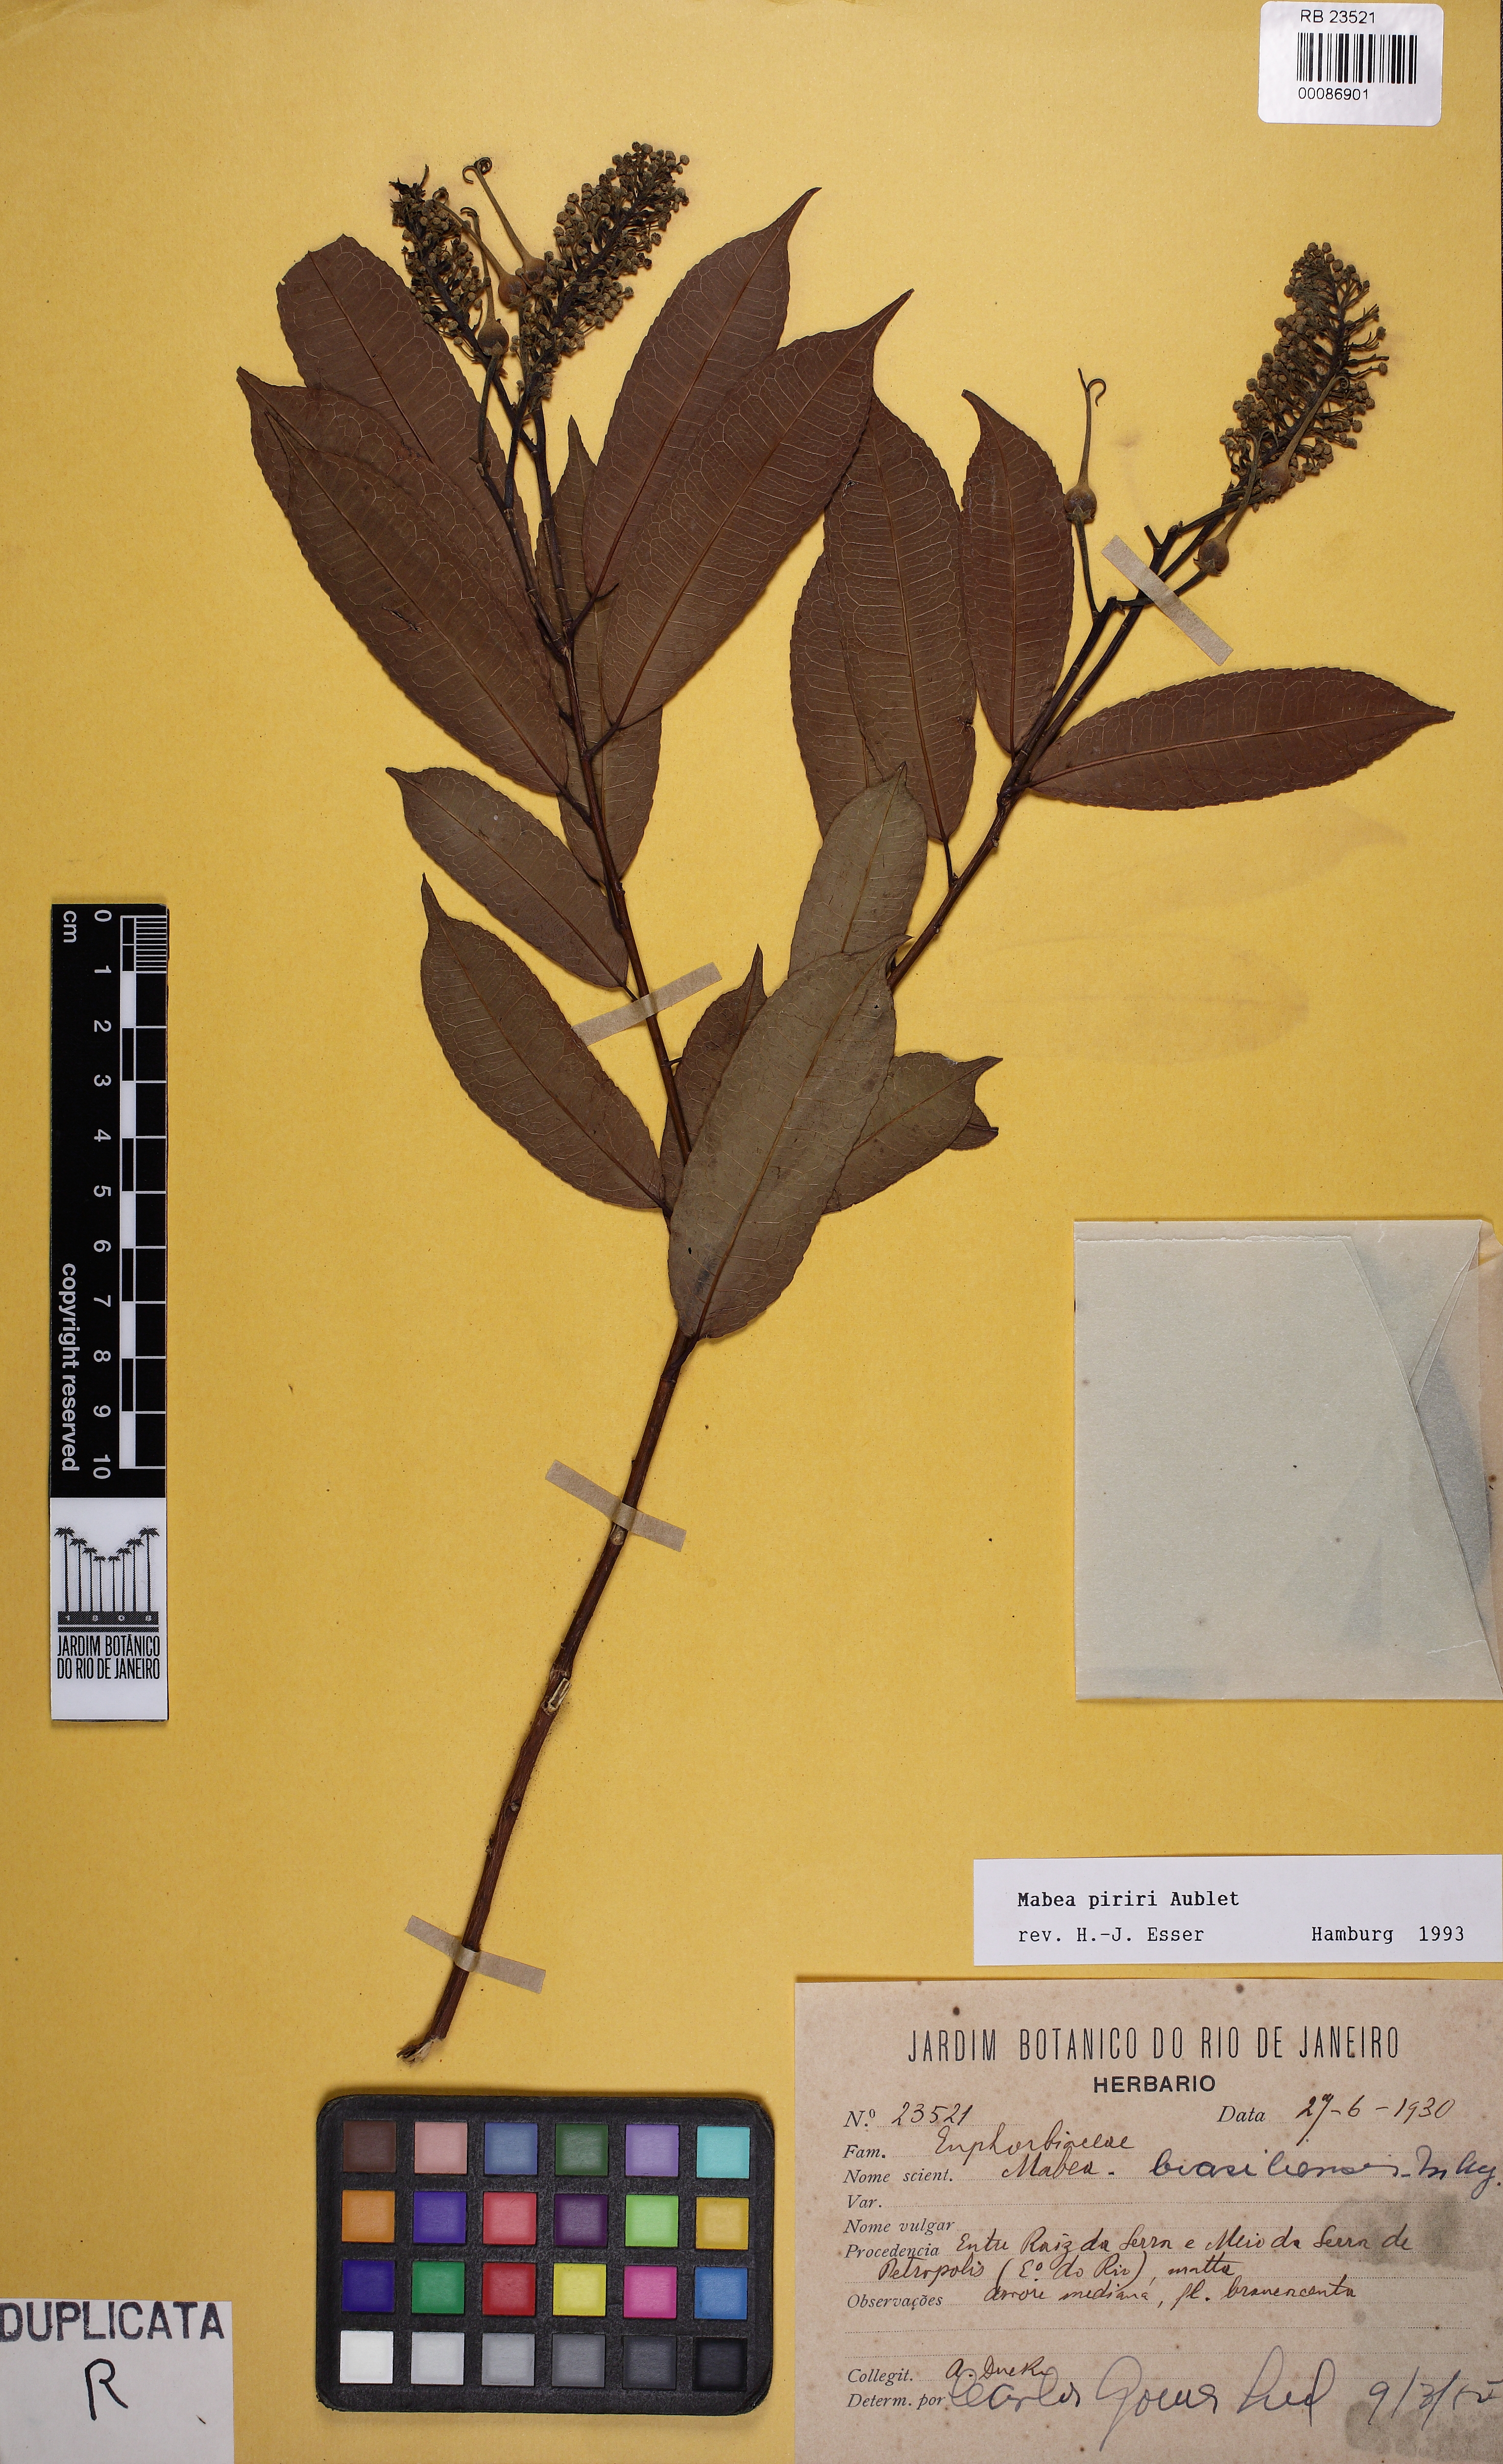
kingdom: Plantae
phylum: Tracheophyta
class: Magnoliopsida
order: Malpighiales
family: Euphorbiaceae
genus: Mabea
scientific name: Mabea piriri
